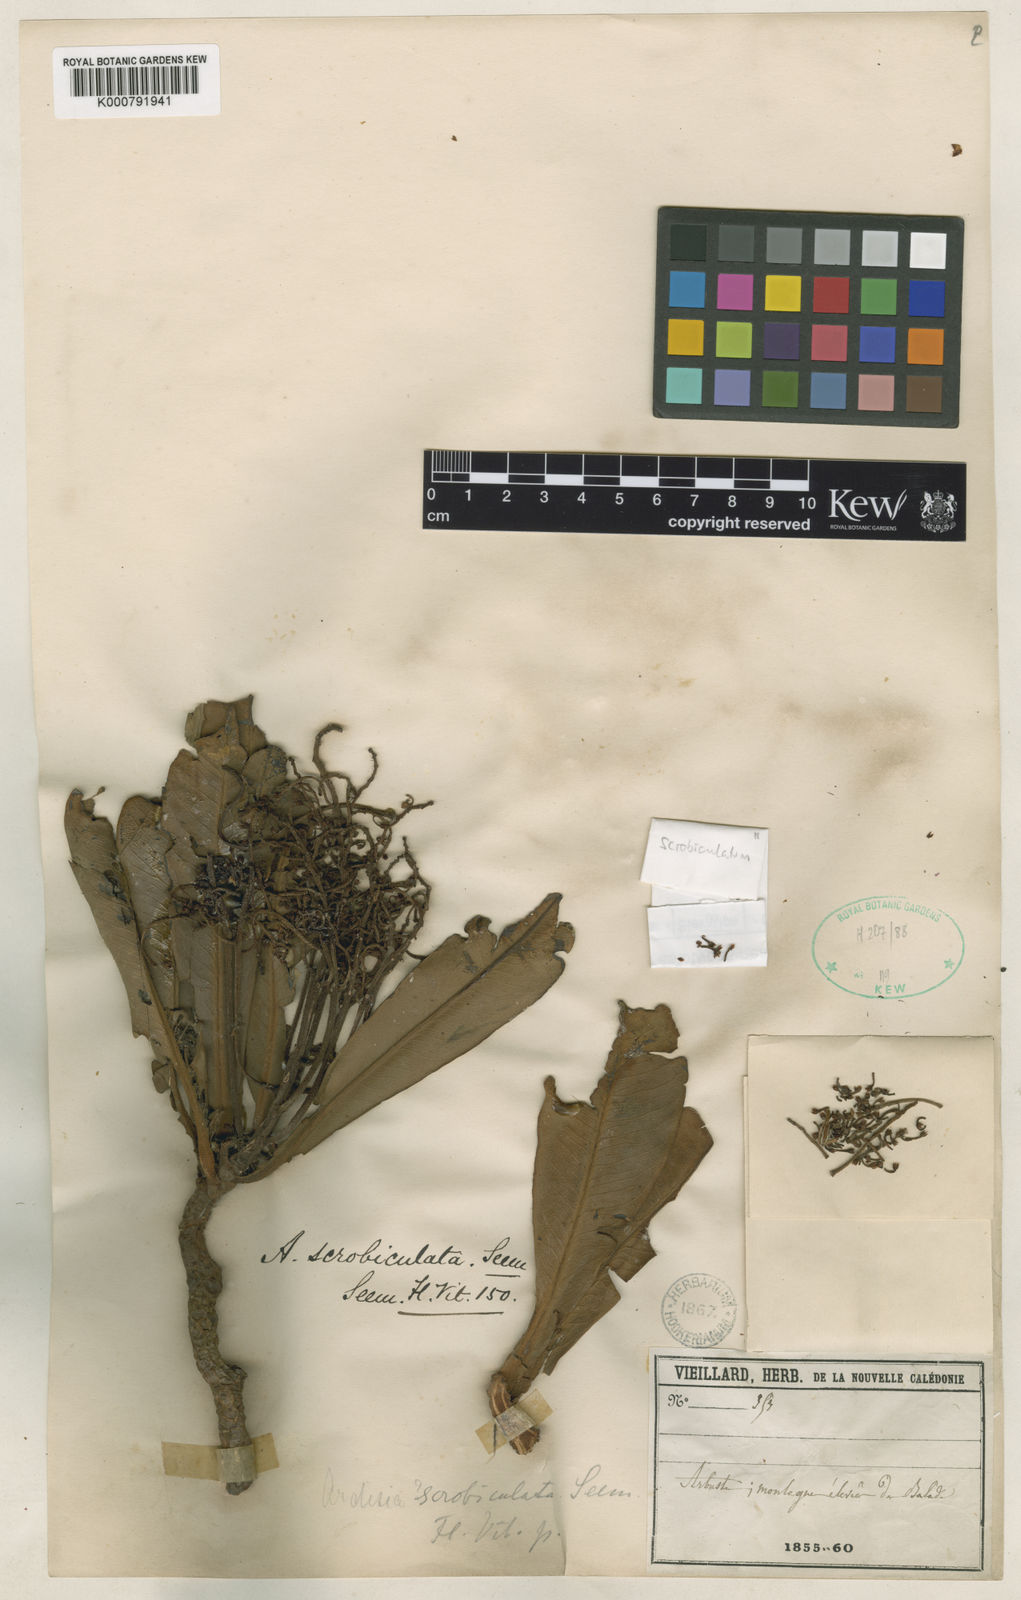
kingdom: Plantae
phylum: Tracheophyta
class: Magnoliopsida
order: Ericales
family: Primulaceae
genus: Tapeinosperma
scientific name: Tapeinosperma vieillardii
